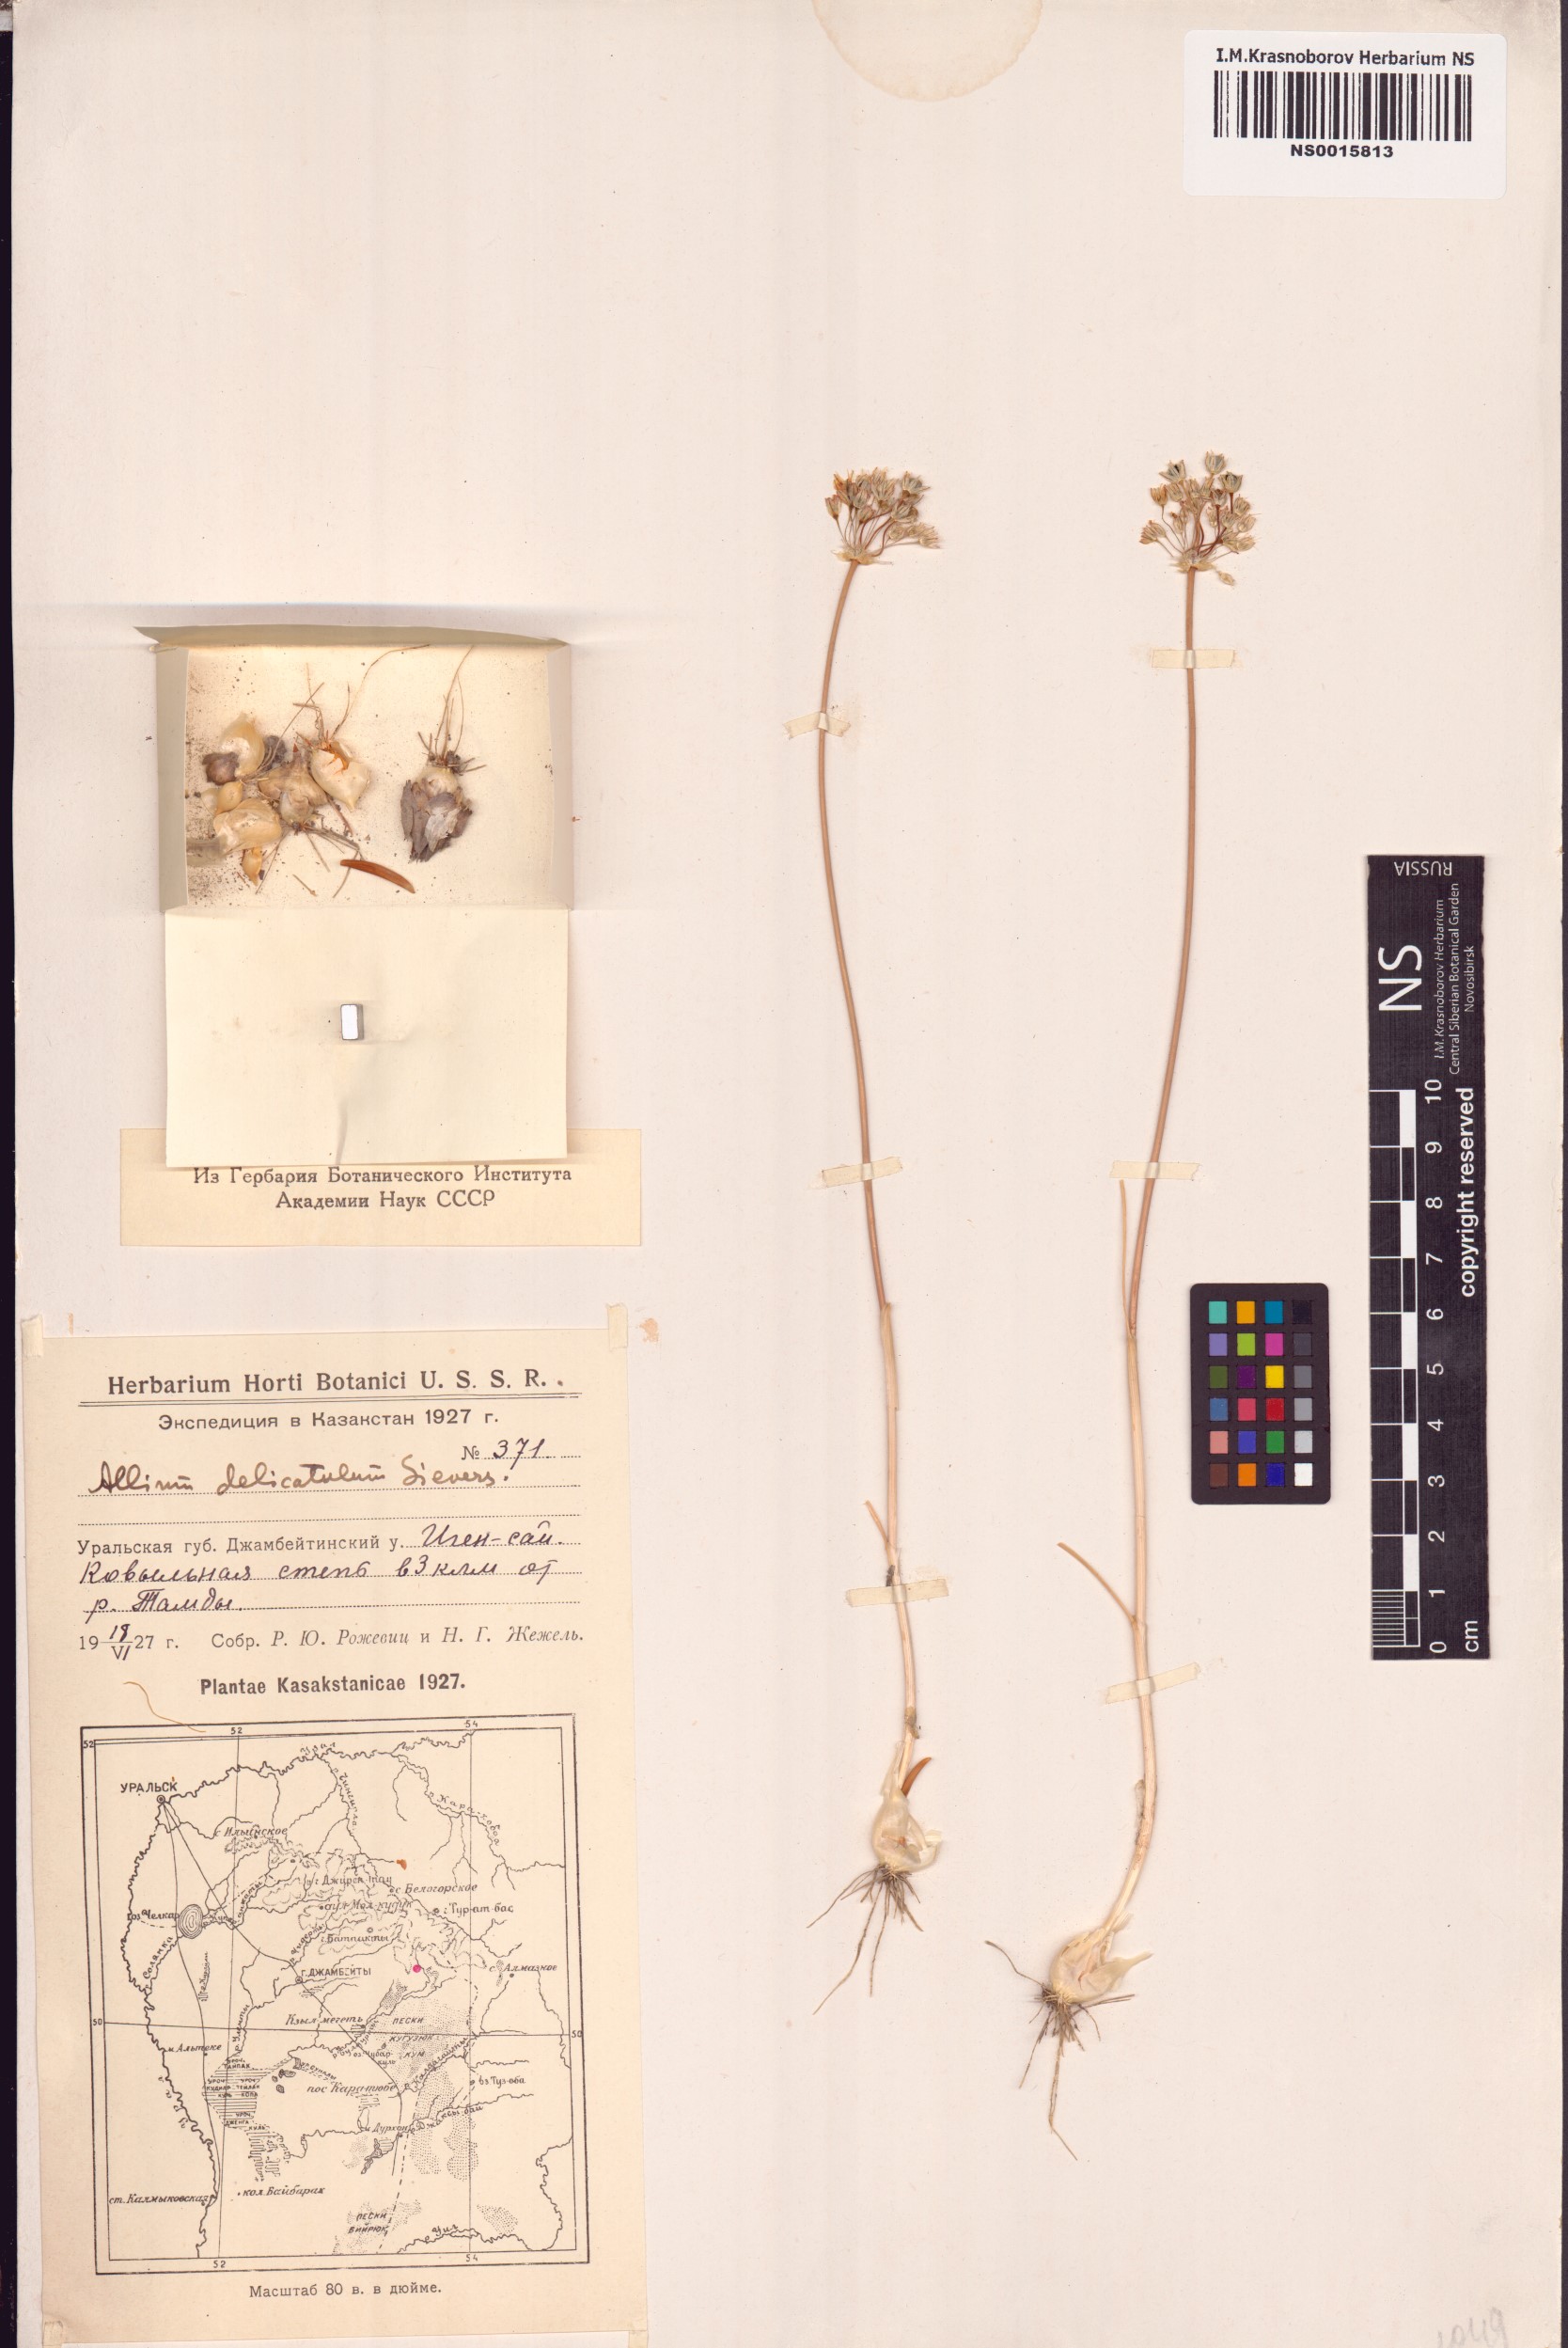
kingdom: Plantae
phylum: Tracheophyta
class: Liliopsida
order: Asparagales
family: Amaryllidaceae
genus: Allium
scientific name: Allium delicatulum
